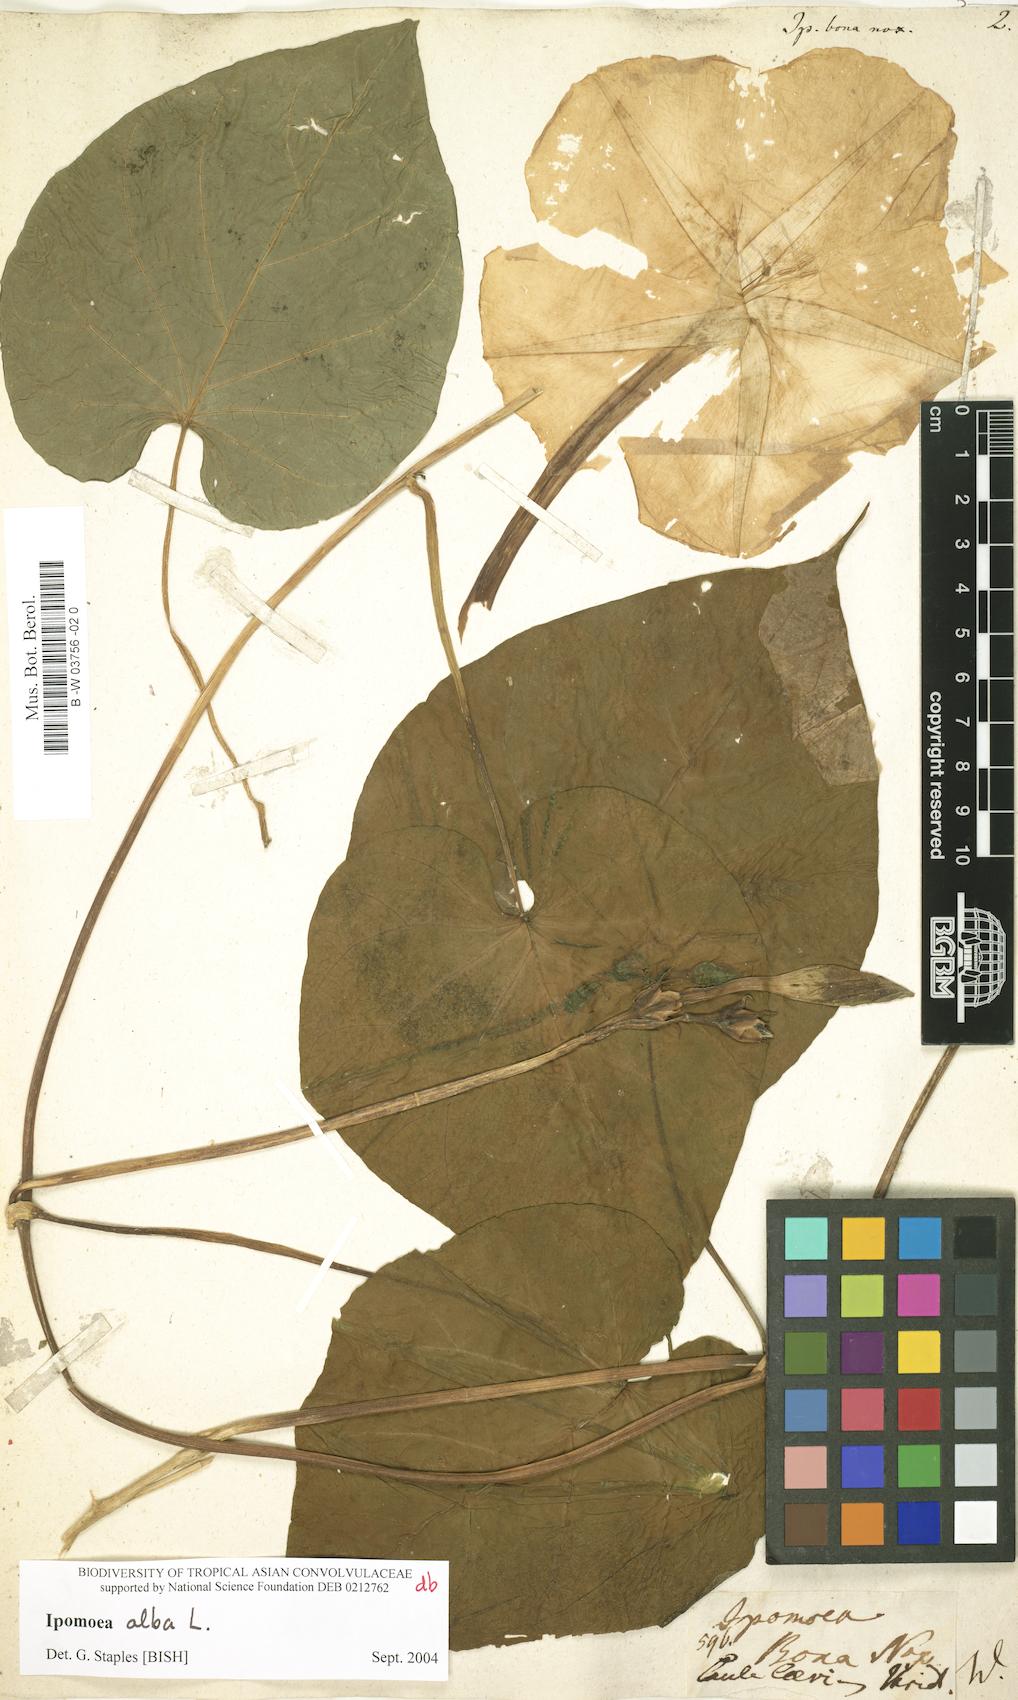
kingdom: Plantae
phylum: Tracheophyta
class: Magnoliopsida
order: Solanales
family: Convolvulaceae
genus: Ipomoea
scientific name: Ipomoea alba
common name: Moonflower
